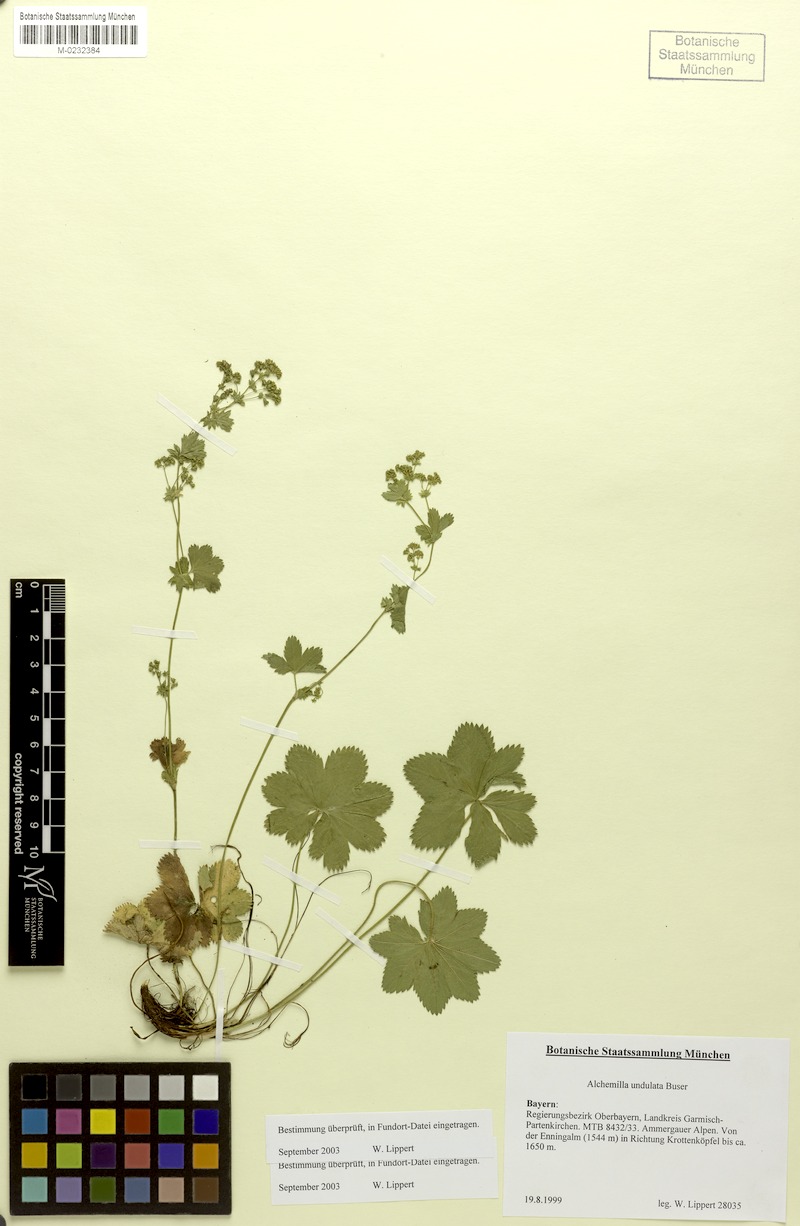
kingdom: Plantae
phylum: Tracheophyta
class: Magnoliopsida
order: Rosales
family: Rosaceae
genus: Alchemilla
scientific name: Alchemilla undulata
